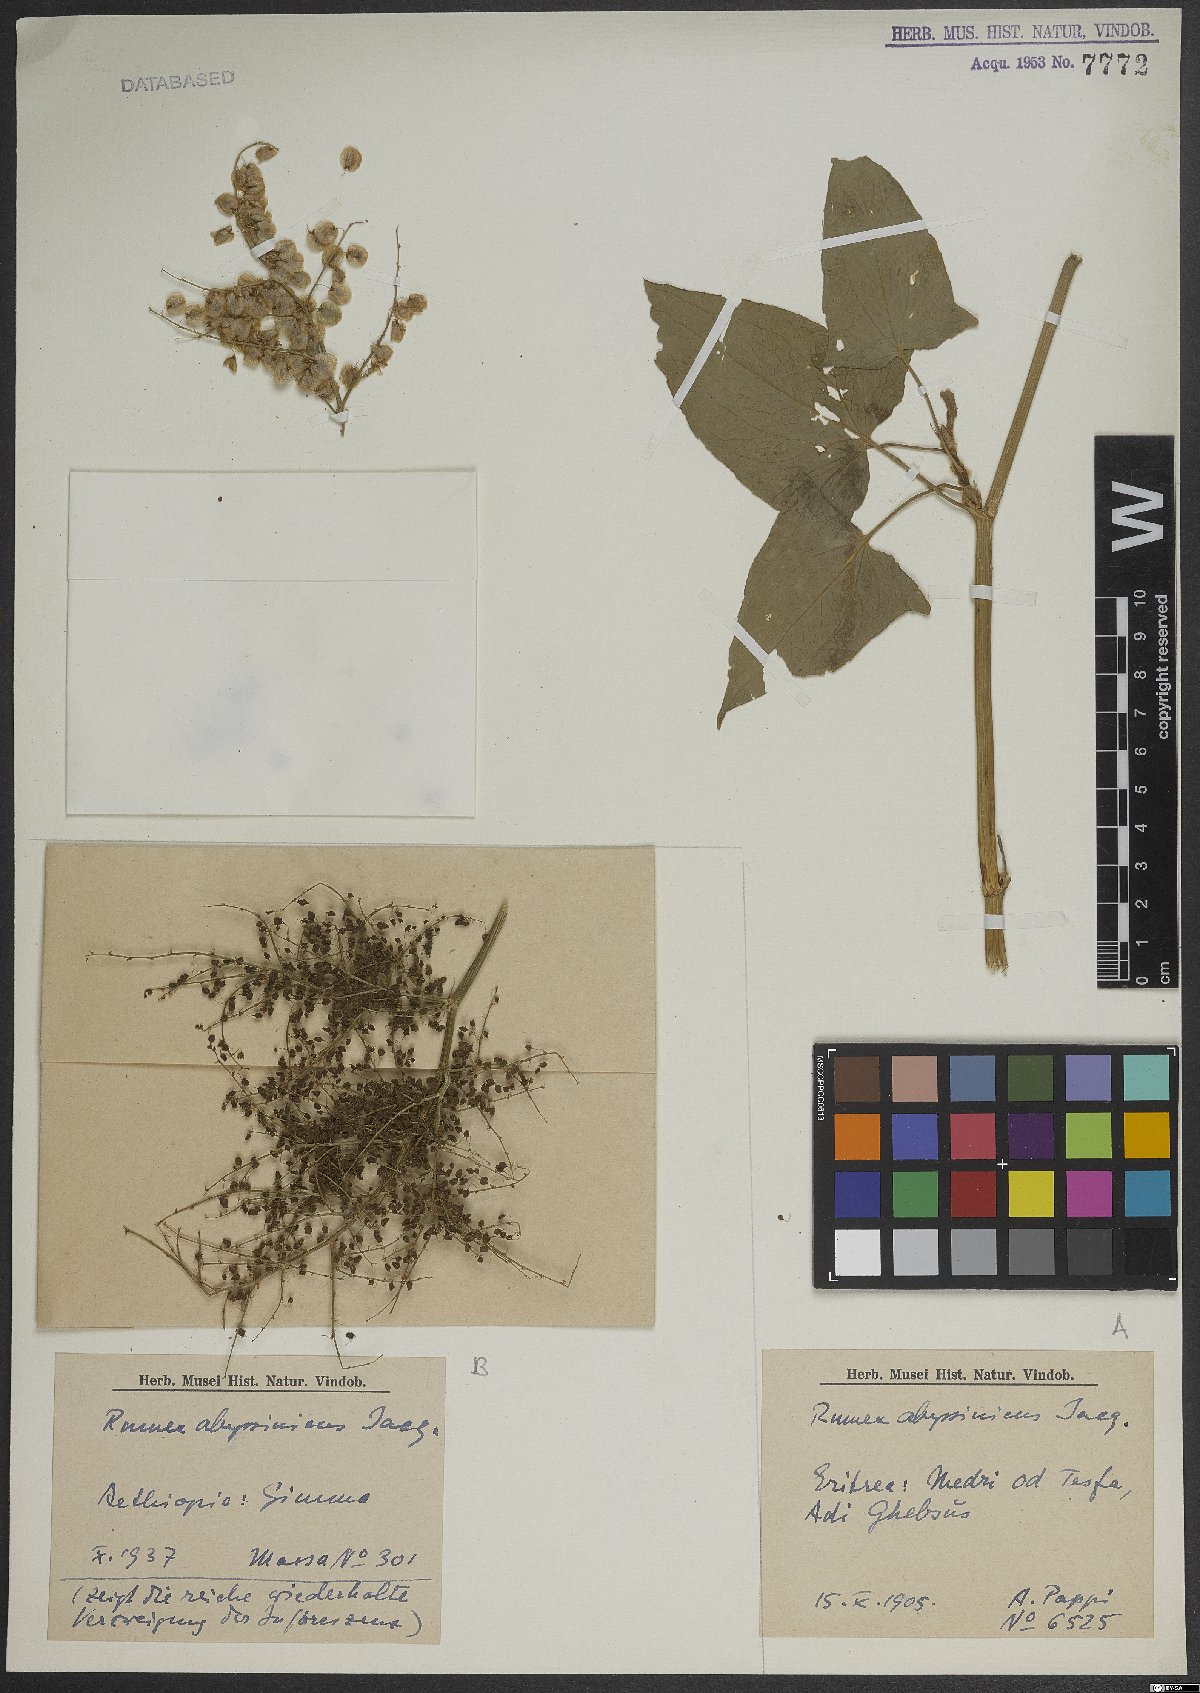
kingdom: Plantae
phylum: Tracheophyta
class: Magnoliopsida
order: Caryophyllales
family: Polygonaceae
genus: Rumex
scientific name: Rumex abyssinicus
